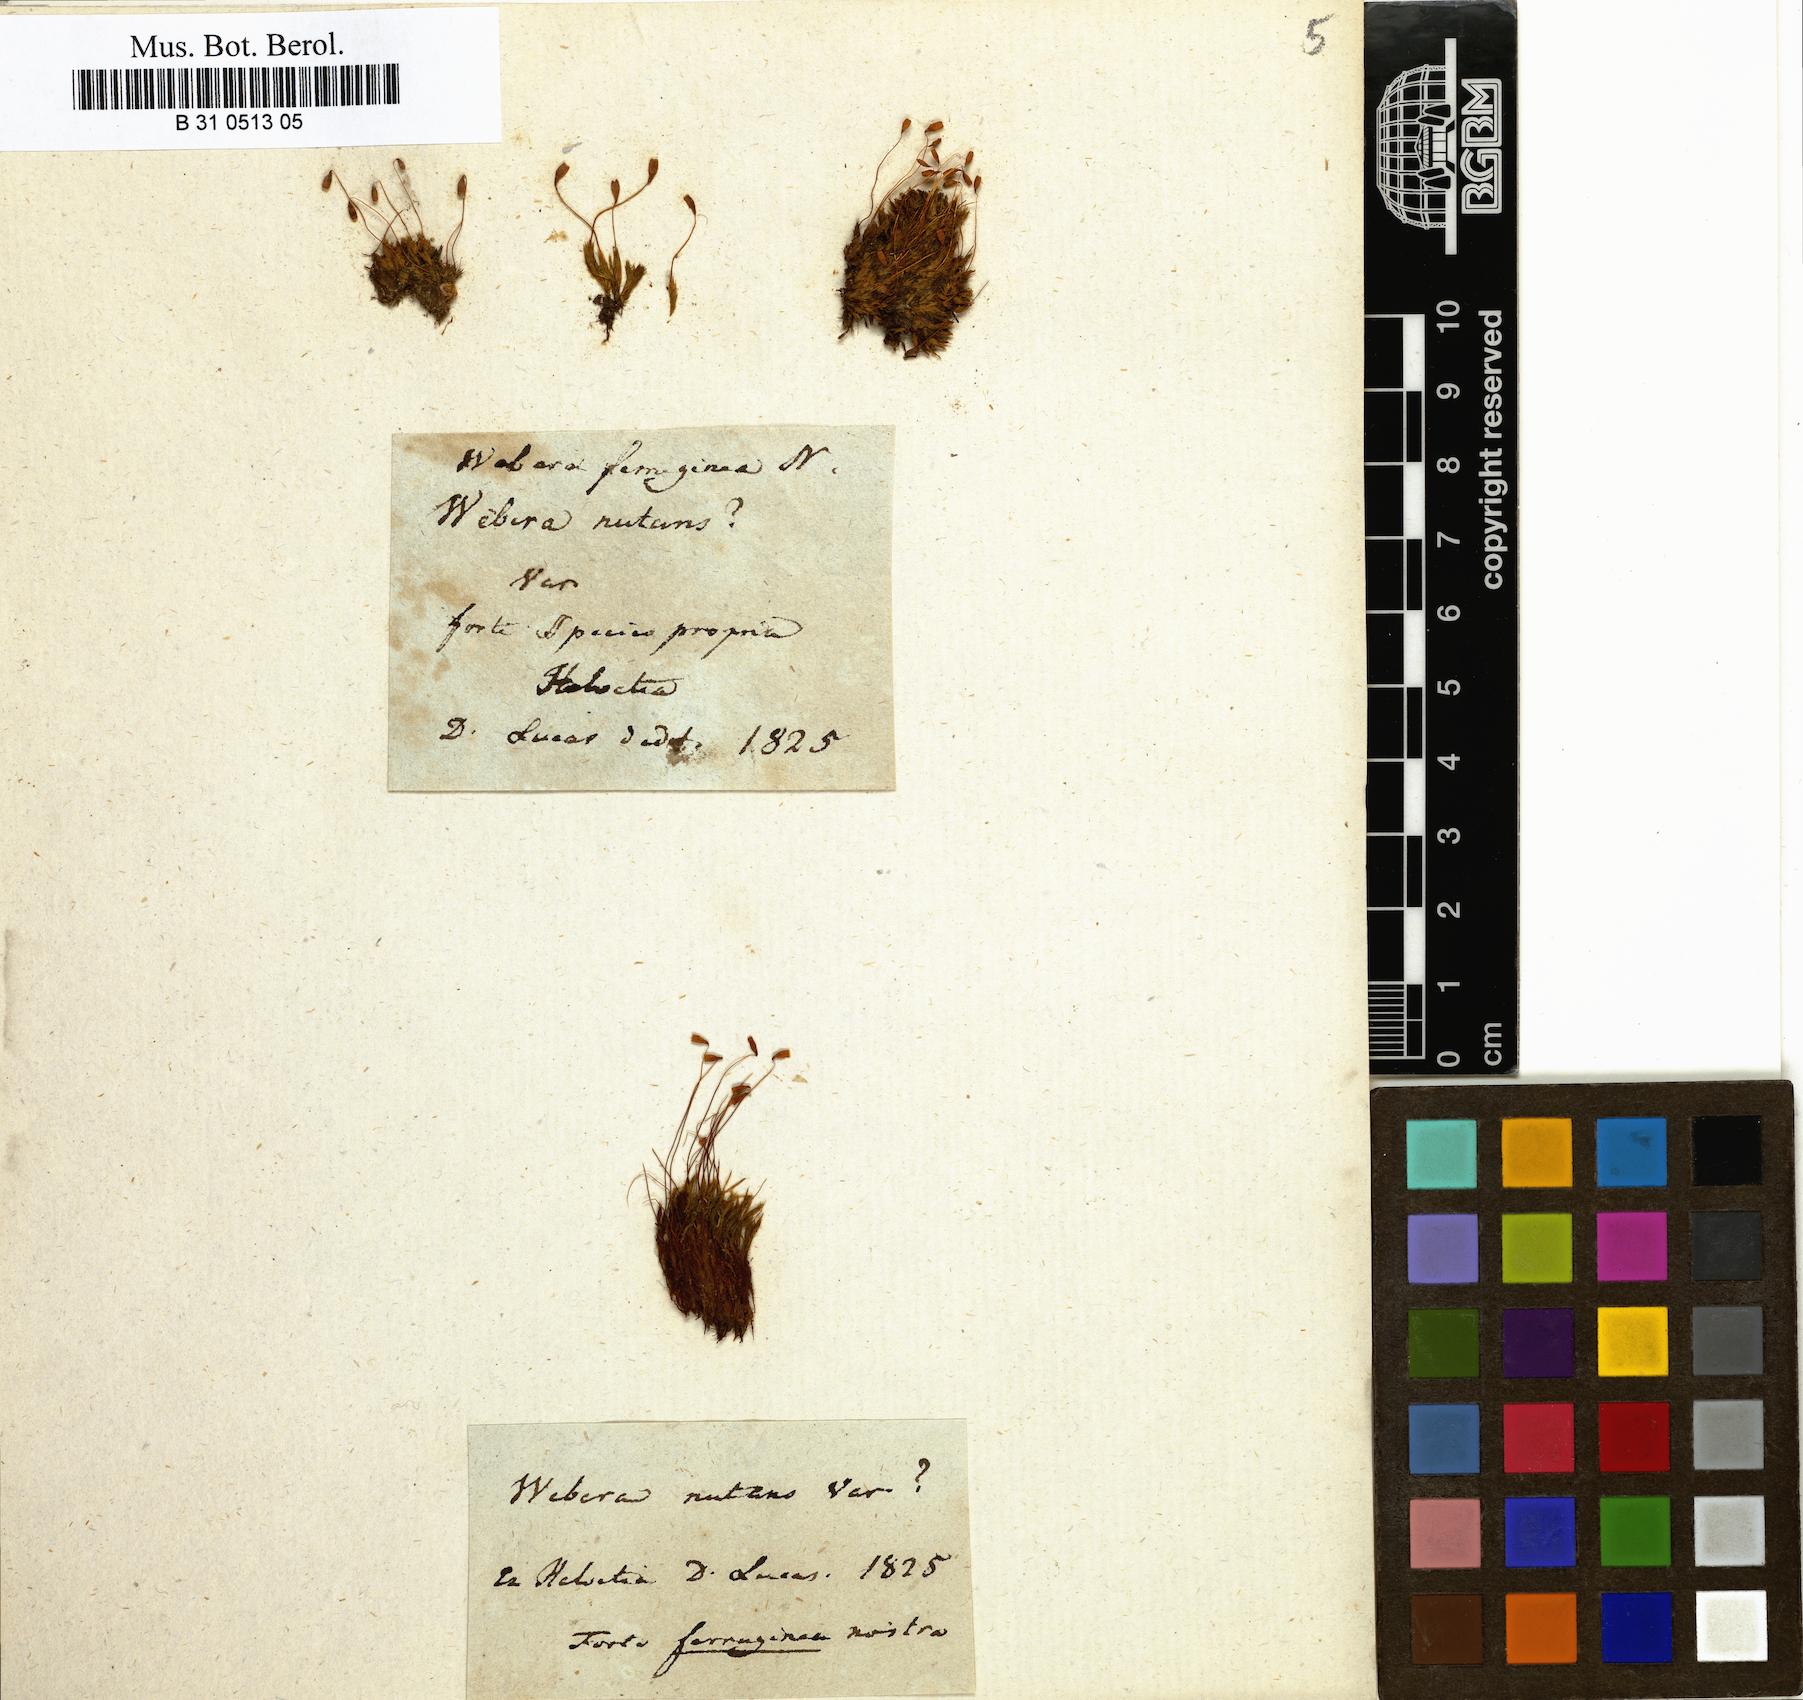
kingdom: Plantae
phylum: Bryophyta
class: Bryopsida
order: Bryales
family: Mniaceae
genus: Pohlia
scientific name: Pohlia nutans
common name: Nodding thread-moss
